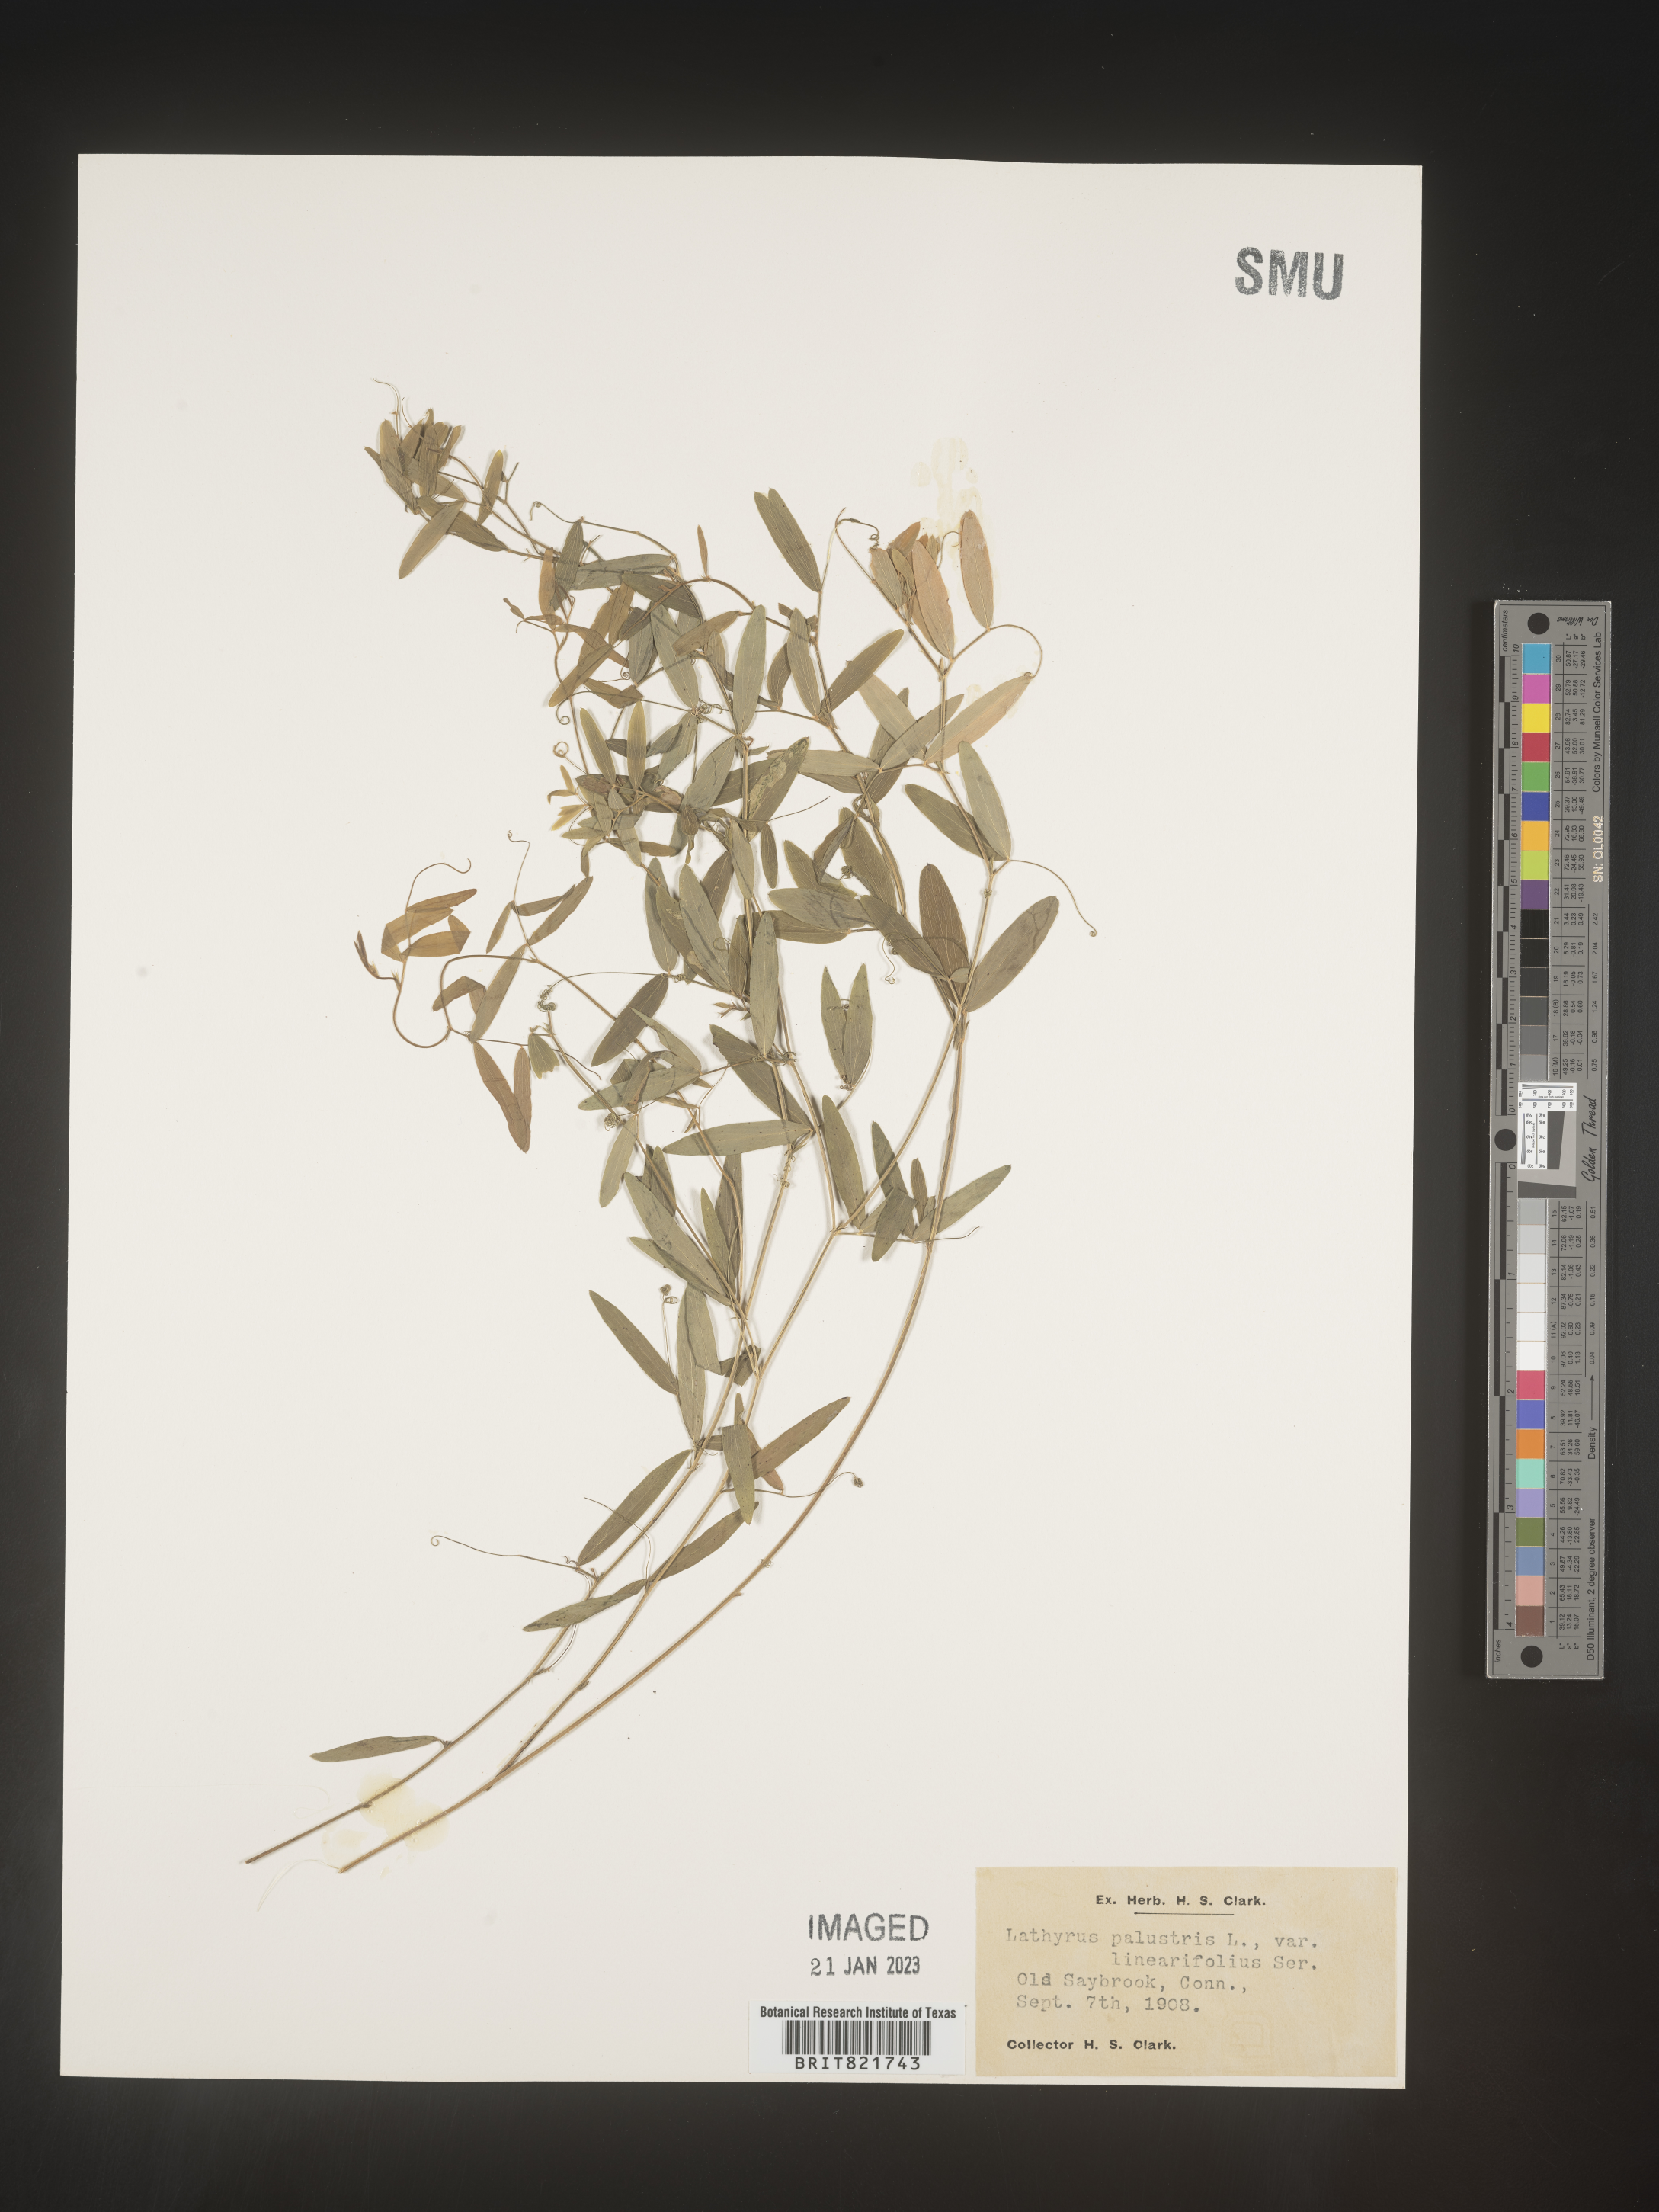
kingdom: Plantae
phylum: Tracheophyta
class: Magnoliopsida
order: Fabales
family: Fabaceae
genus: Lathyrus
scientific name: Lathyrus palustris
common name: Marsh pea
